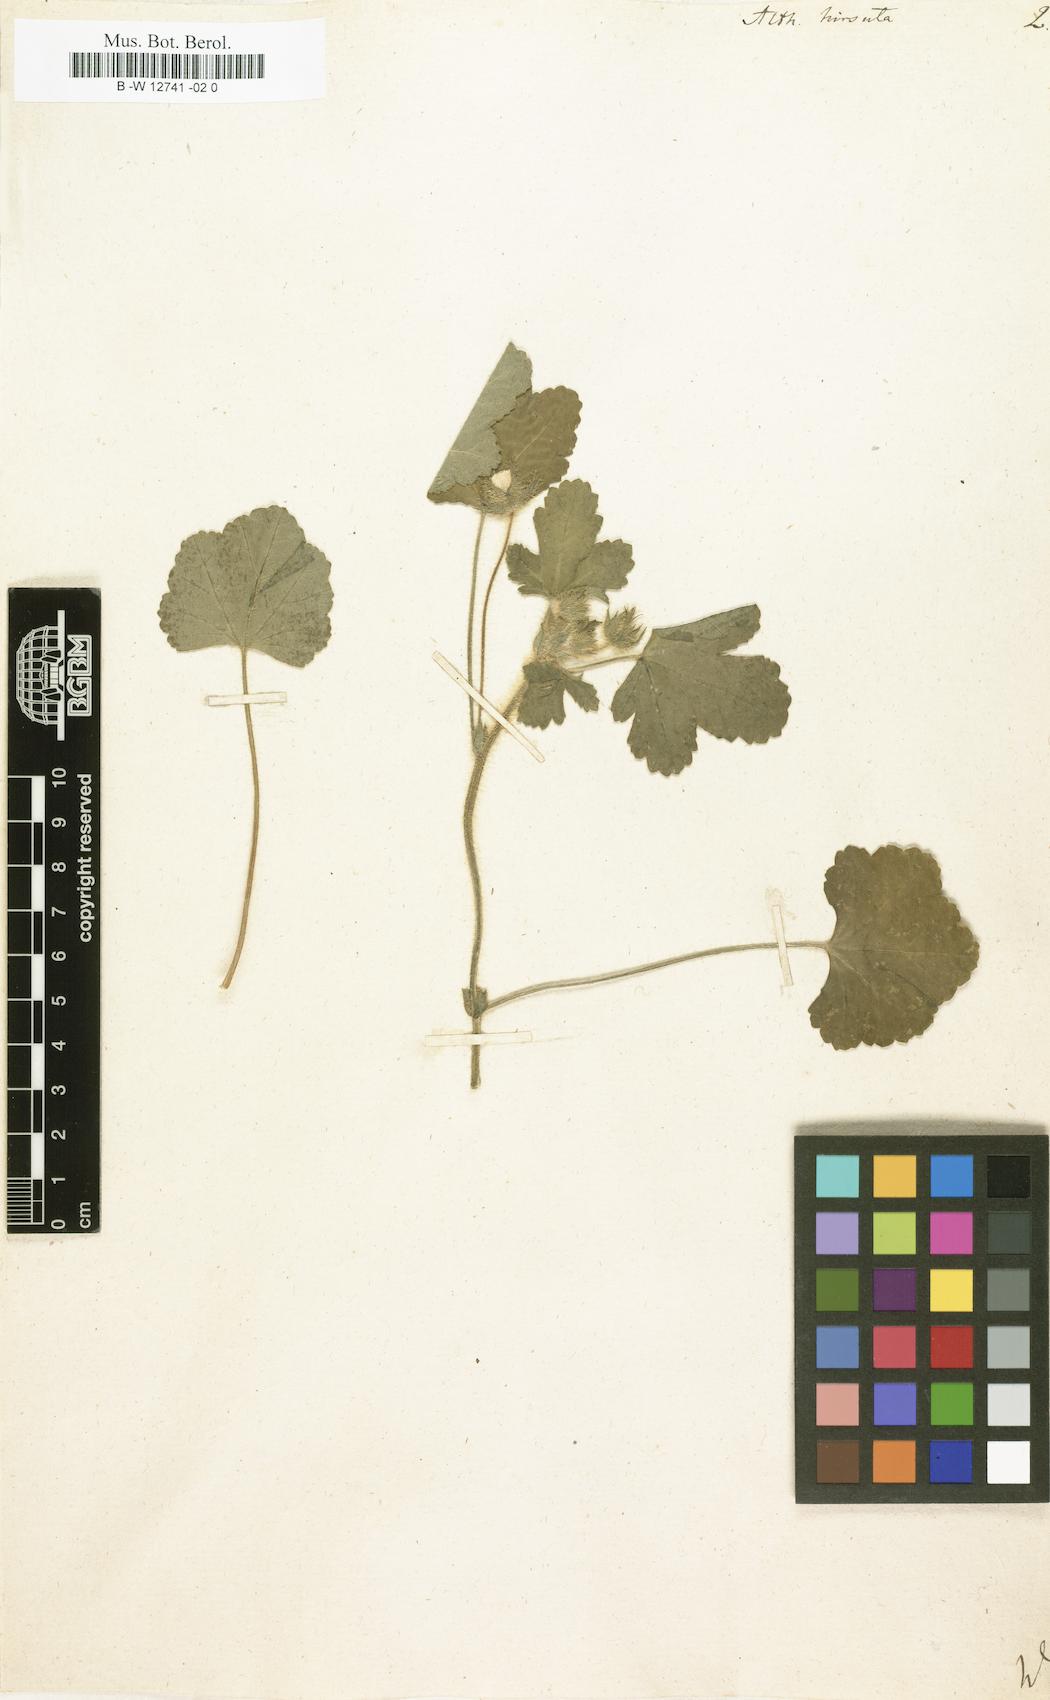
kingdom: Plantae
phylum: Tracheophyta
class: Magnoliopsida
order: Malvales
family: Malvaceae
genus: Althaea
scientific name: Althaea hirsuta
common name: Rough marsh-mallow
